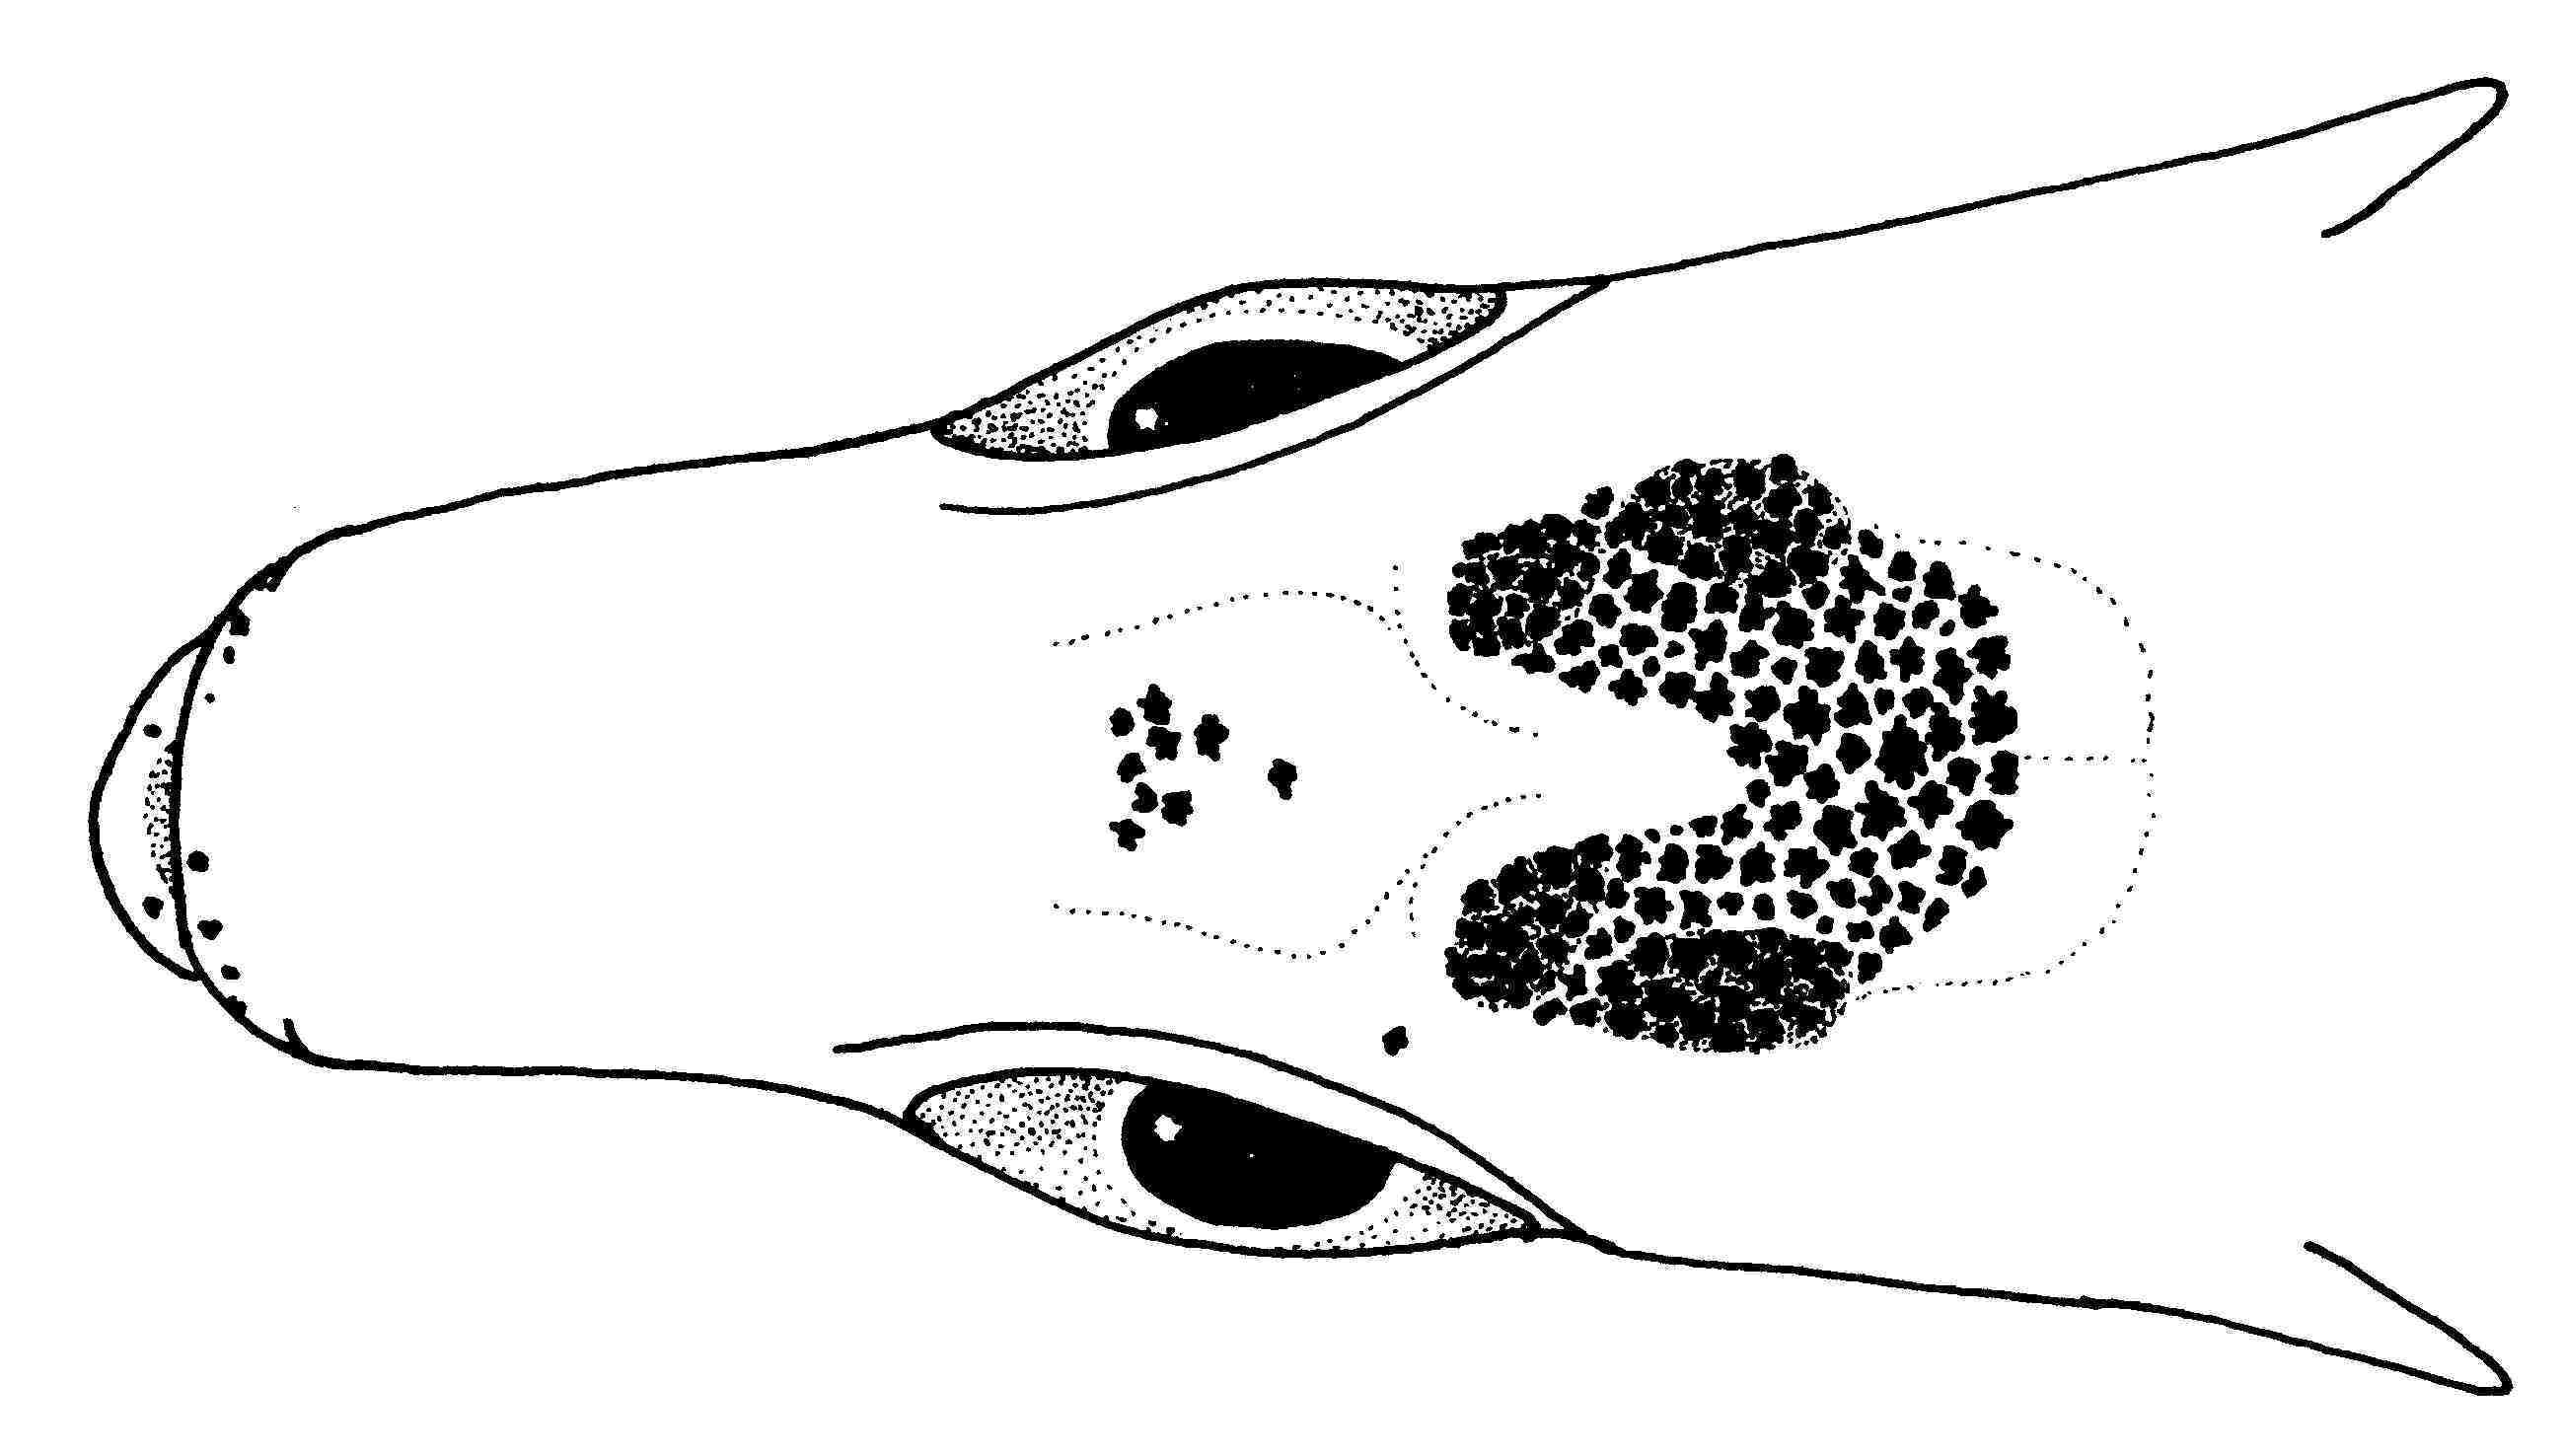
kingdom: Animalia
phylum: Chordata
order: Clupeiformes
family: Clupeidae
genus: Spratellomorpha
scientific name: Spratellomorpha bianalis
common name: Two-finned round herring
